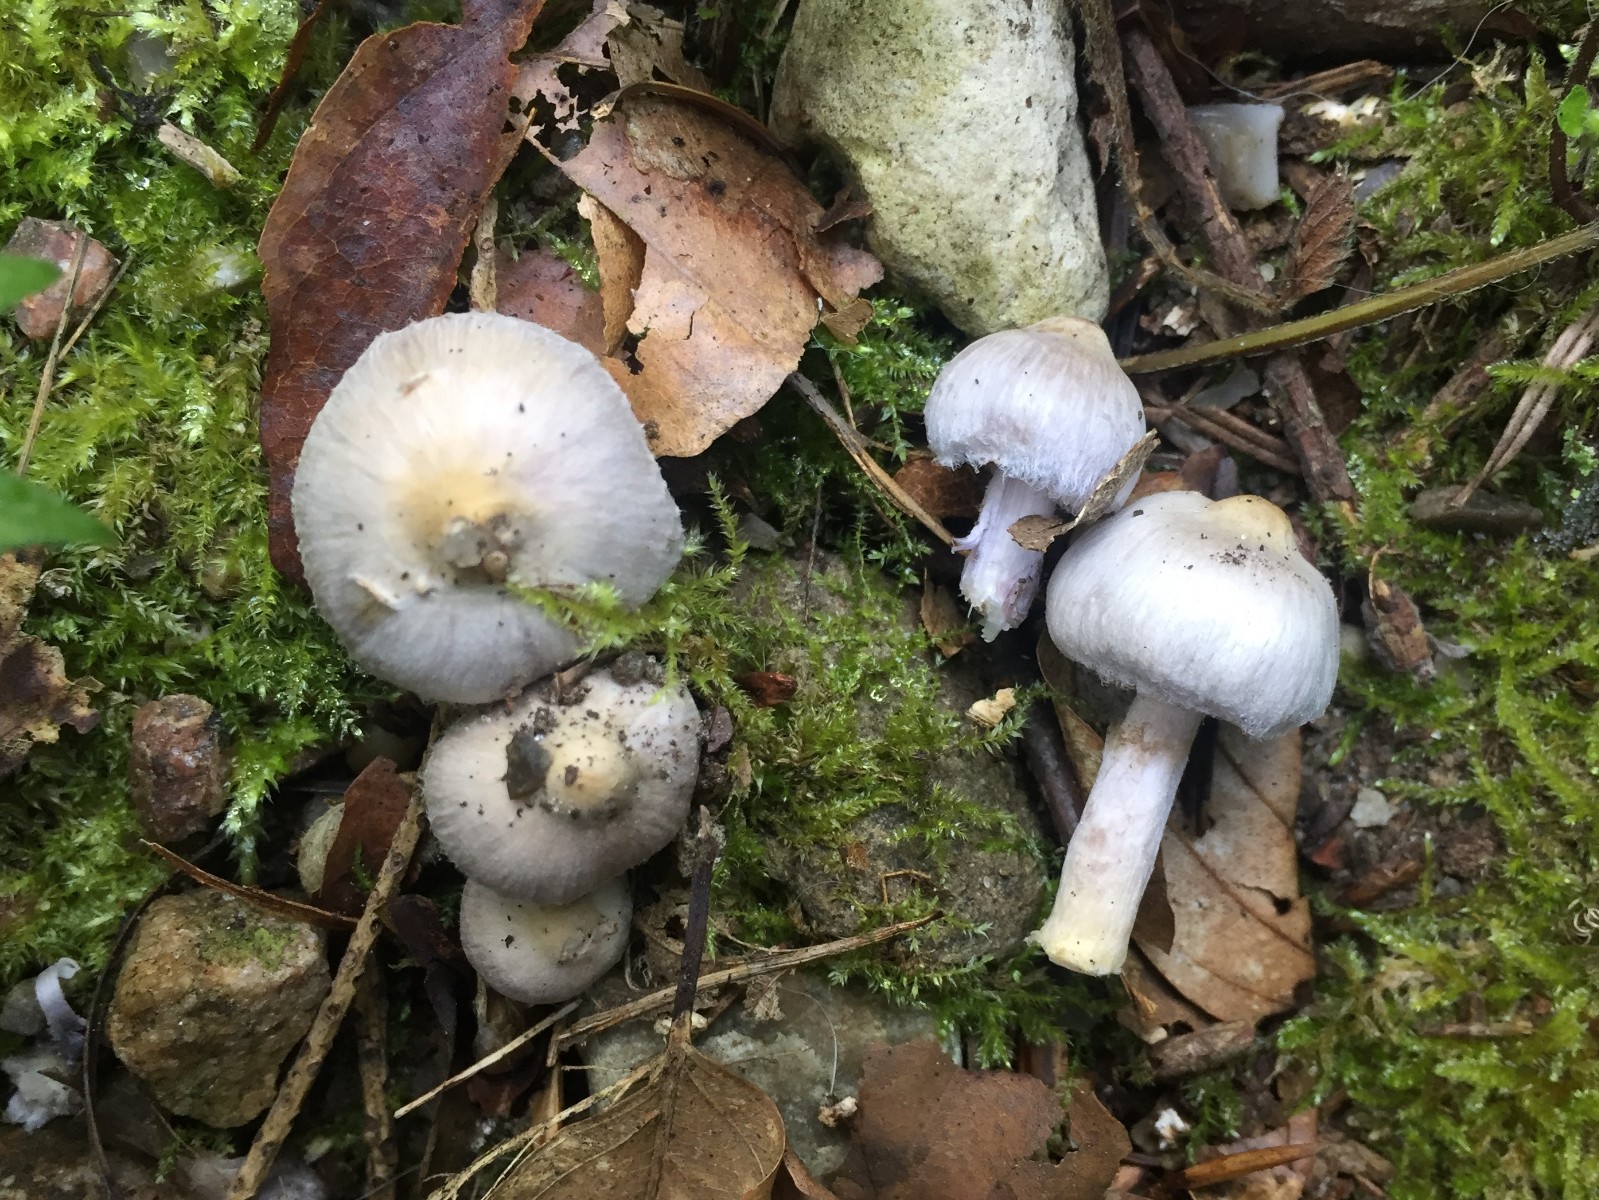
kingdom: Fungi
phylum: Basidiomycota
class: Agaricomycetes
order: Agaricales
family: Inocybaceae
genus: Inocybe
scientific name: Inocybe geophylla
